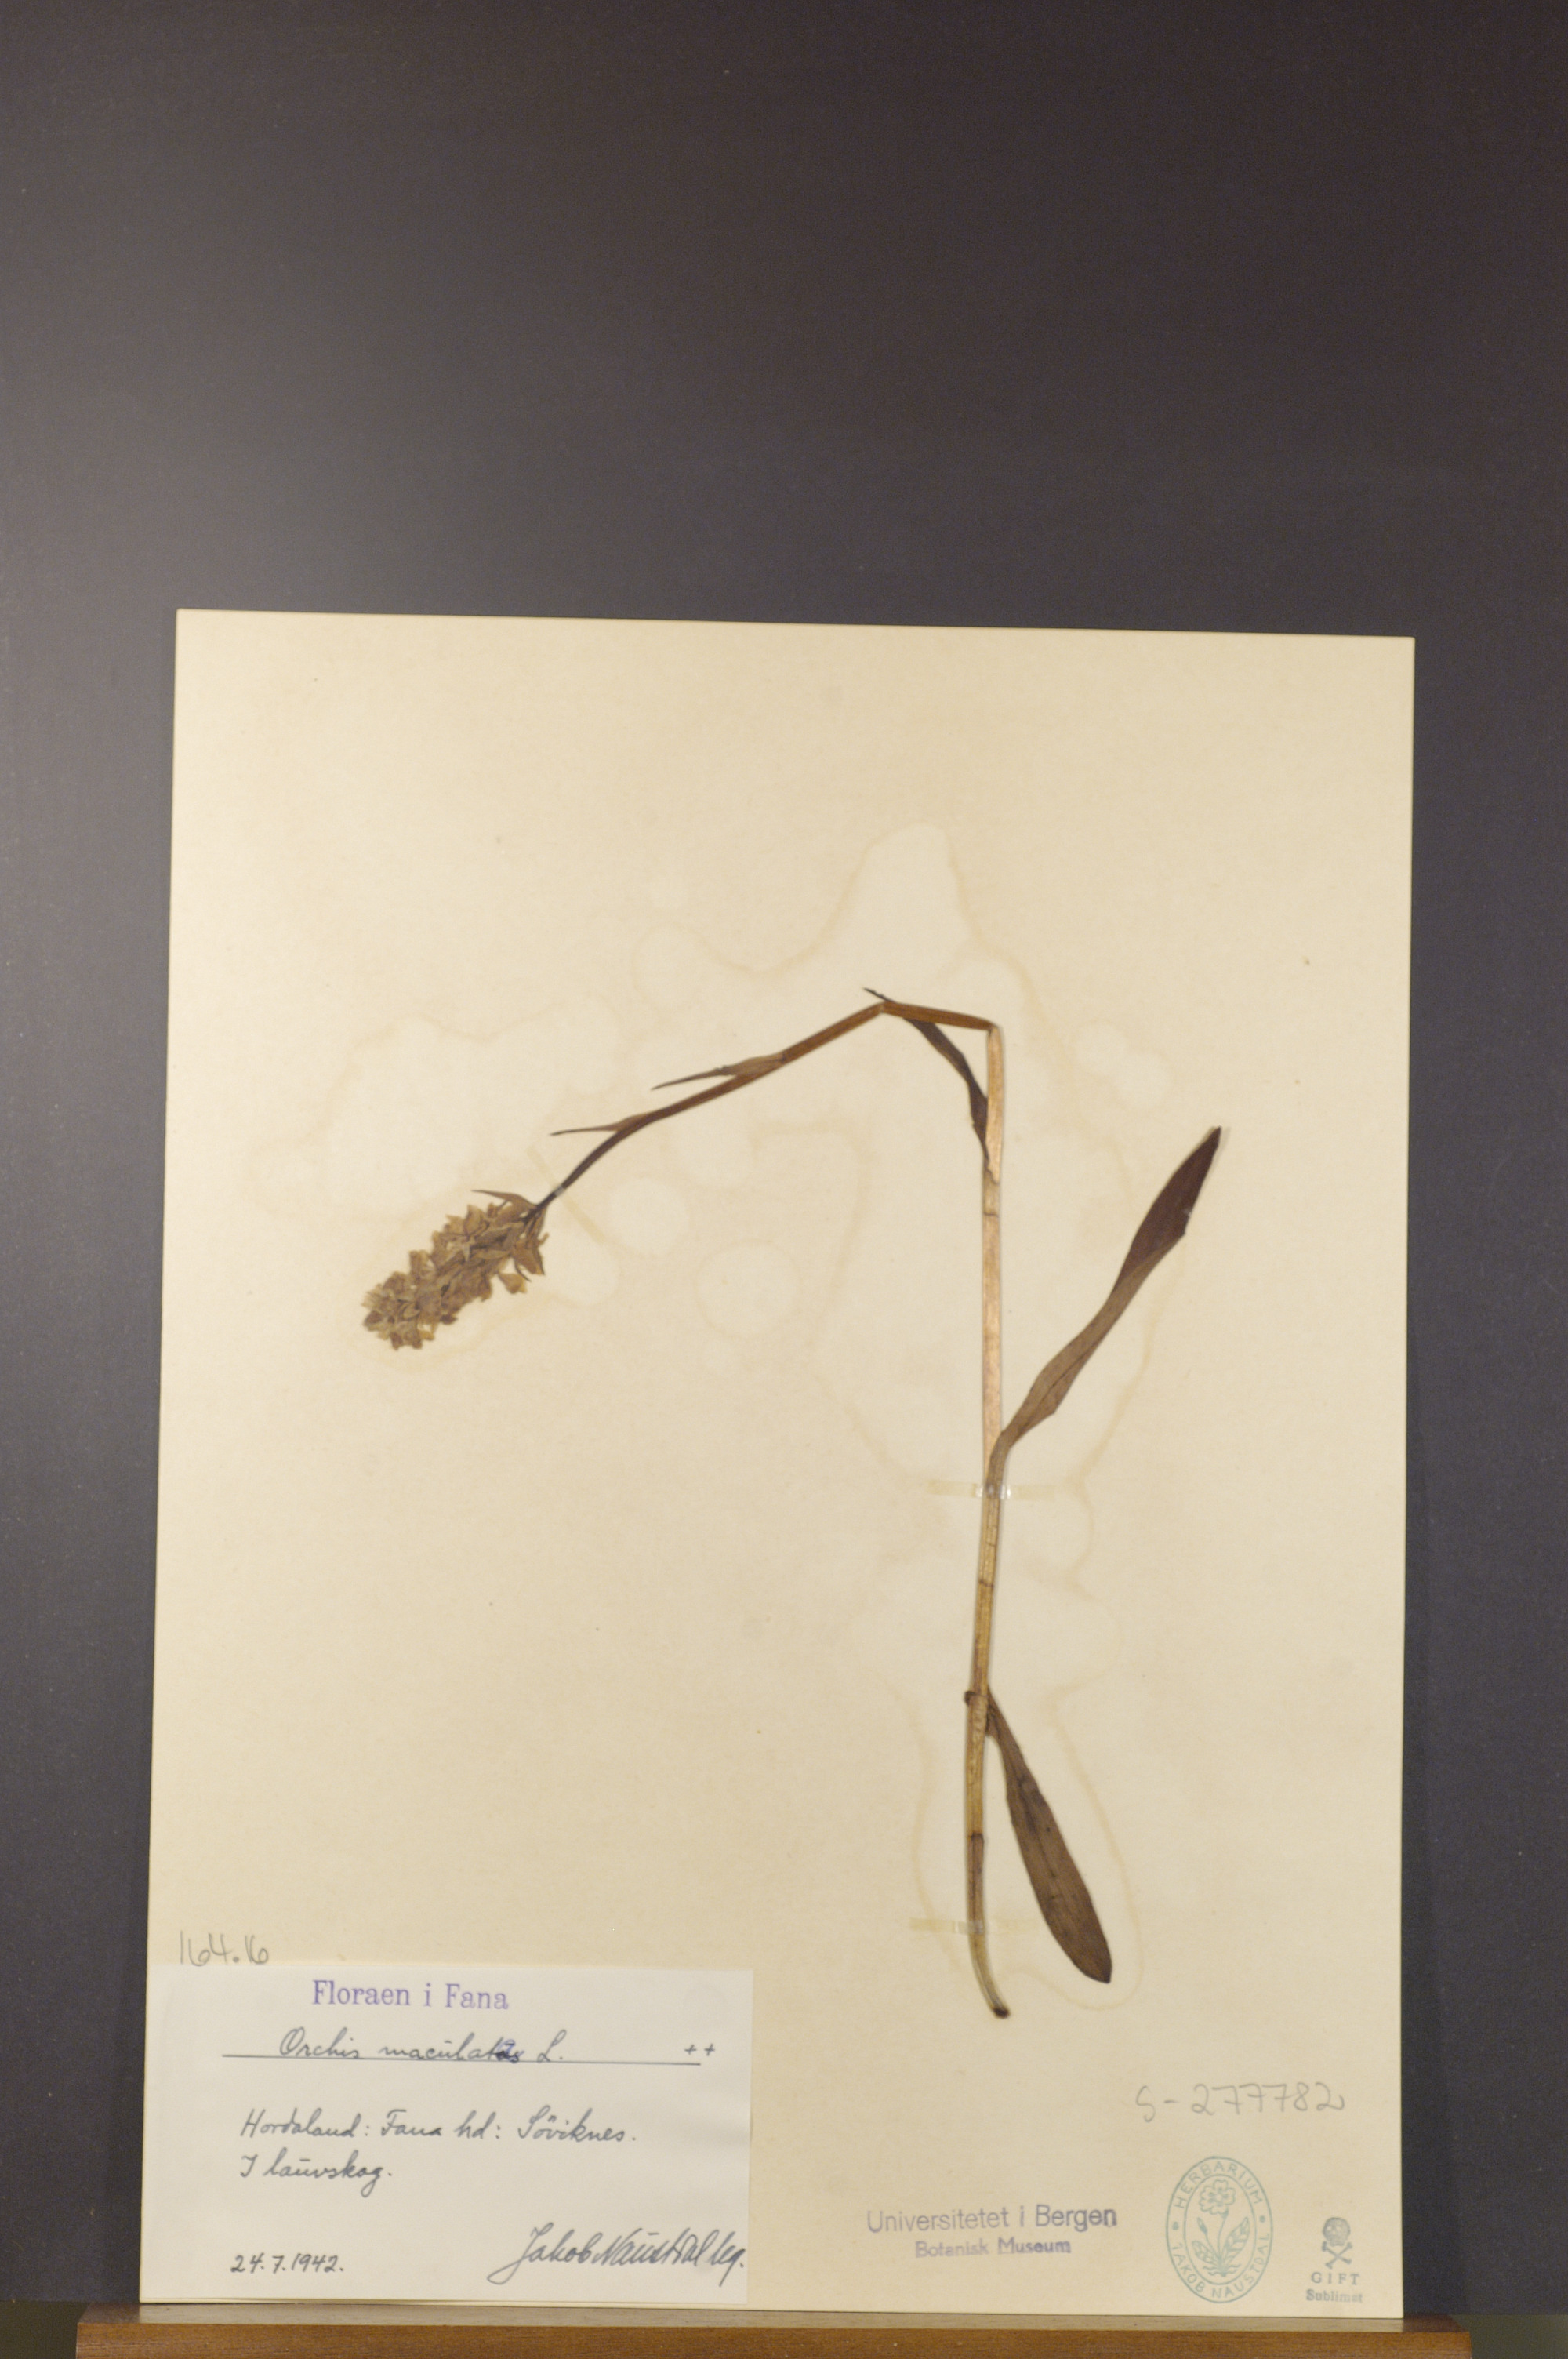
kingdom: Plantae
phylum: Tracheophyta
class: Liliopsida
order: Asparagales
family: Orchidaceae
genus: Dactylorhiza
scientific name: Dactylorhiza maculata
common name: Heath spotted-orchid
